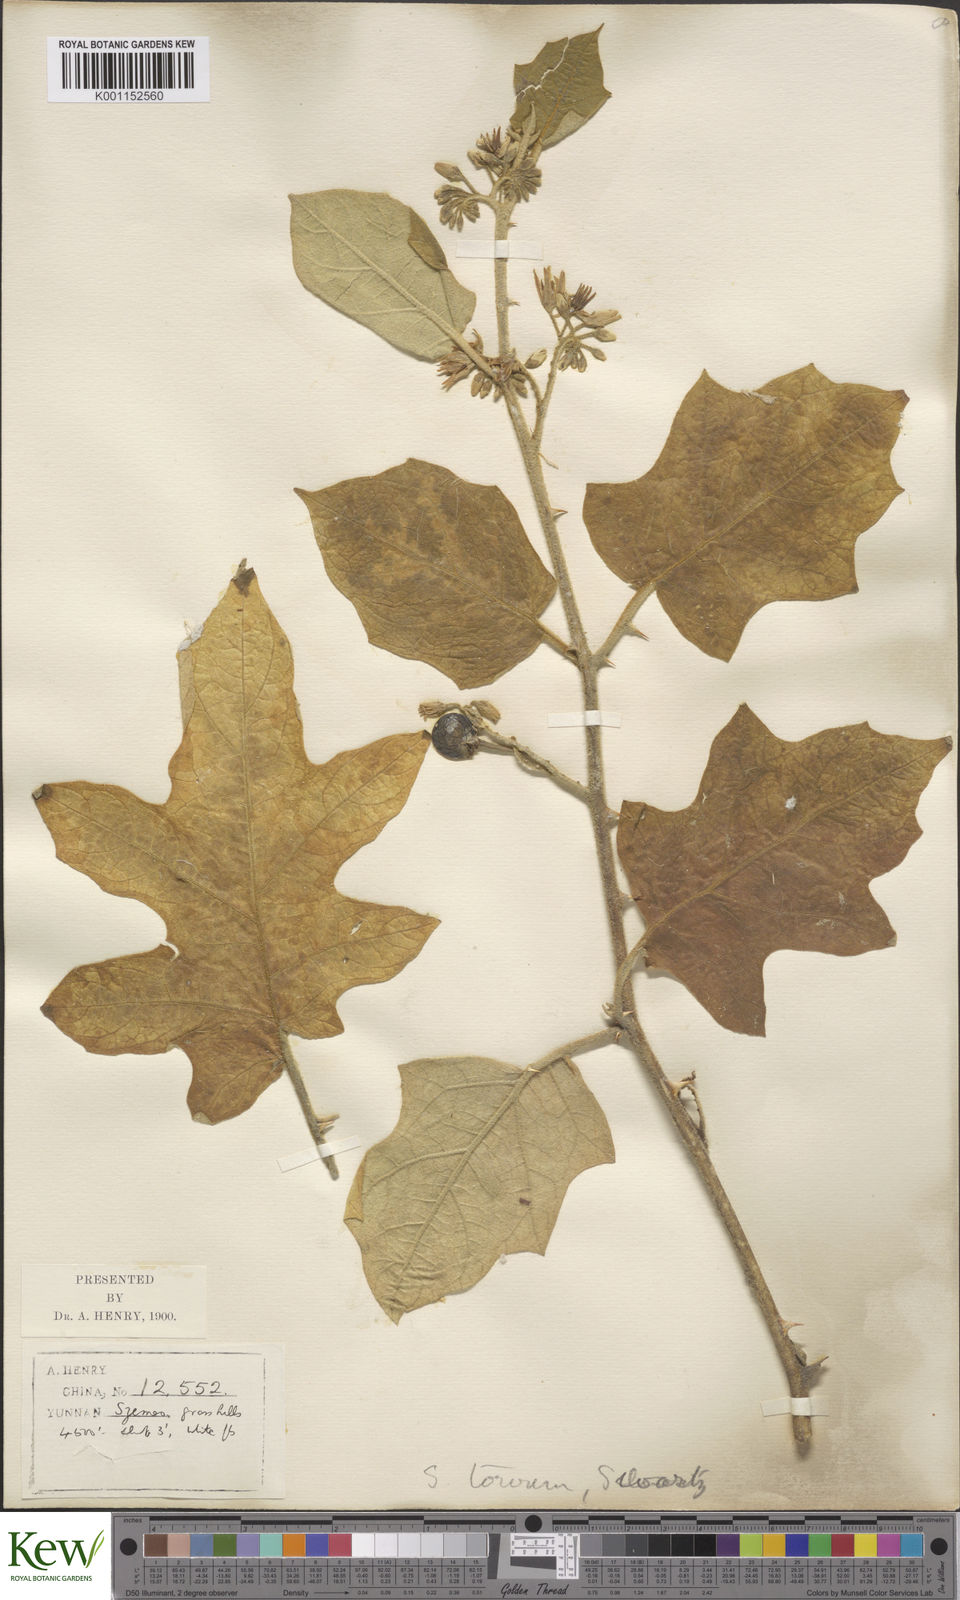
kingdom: Plantae
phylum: Tracheophyta
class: Magnoliopsida
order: Solanales
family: Solanaceae
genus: Solanum
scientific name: Solanum torvum
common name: Turkey berry
